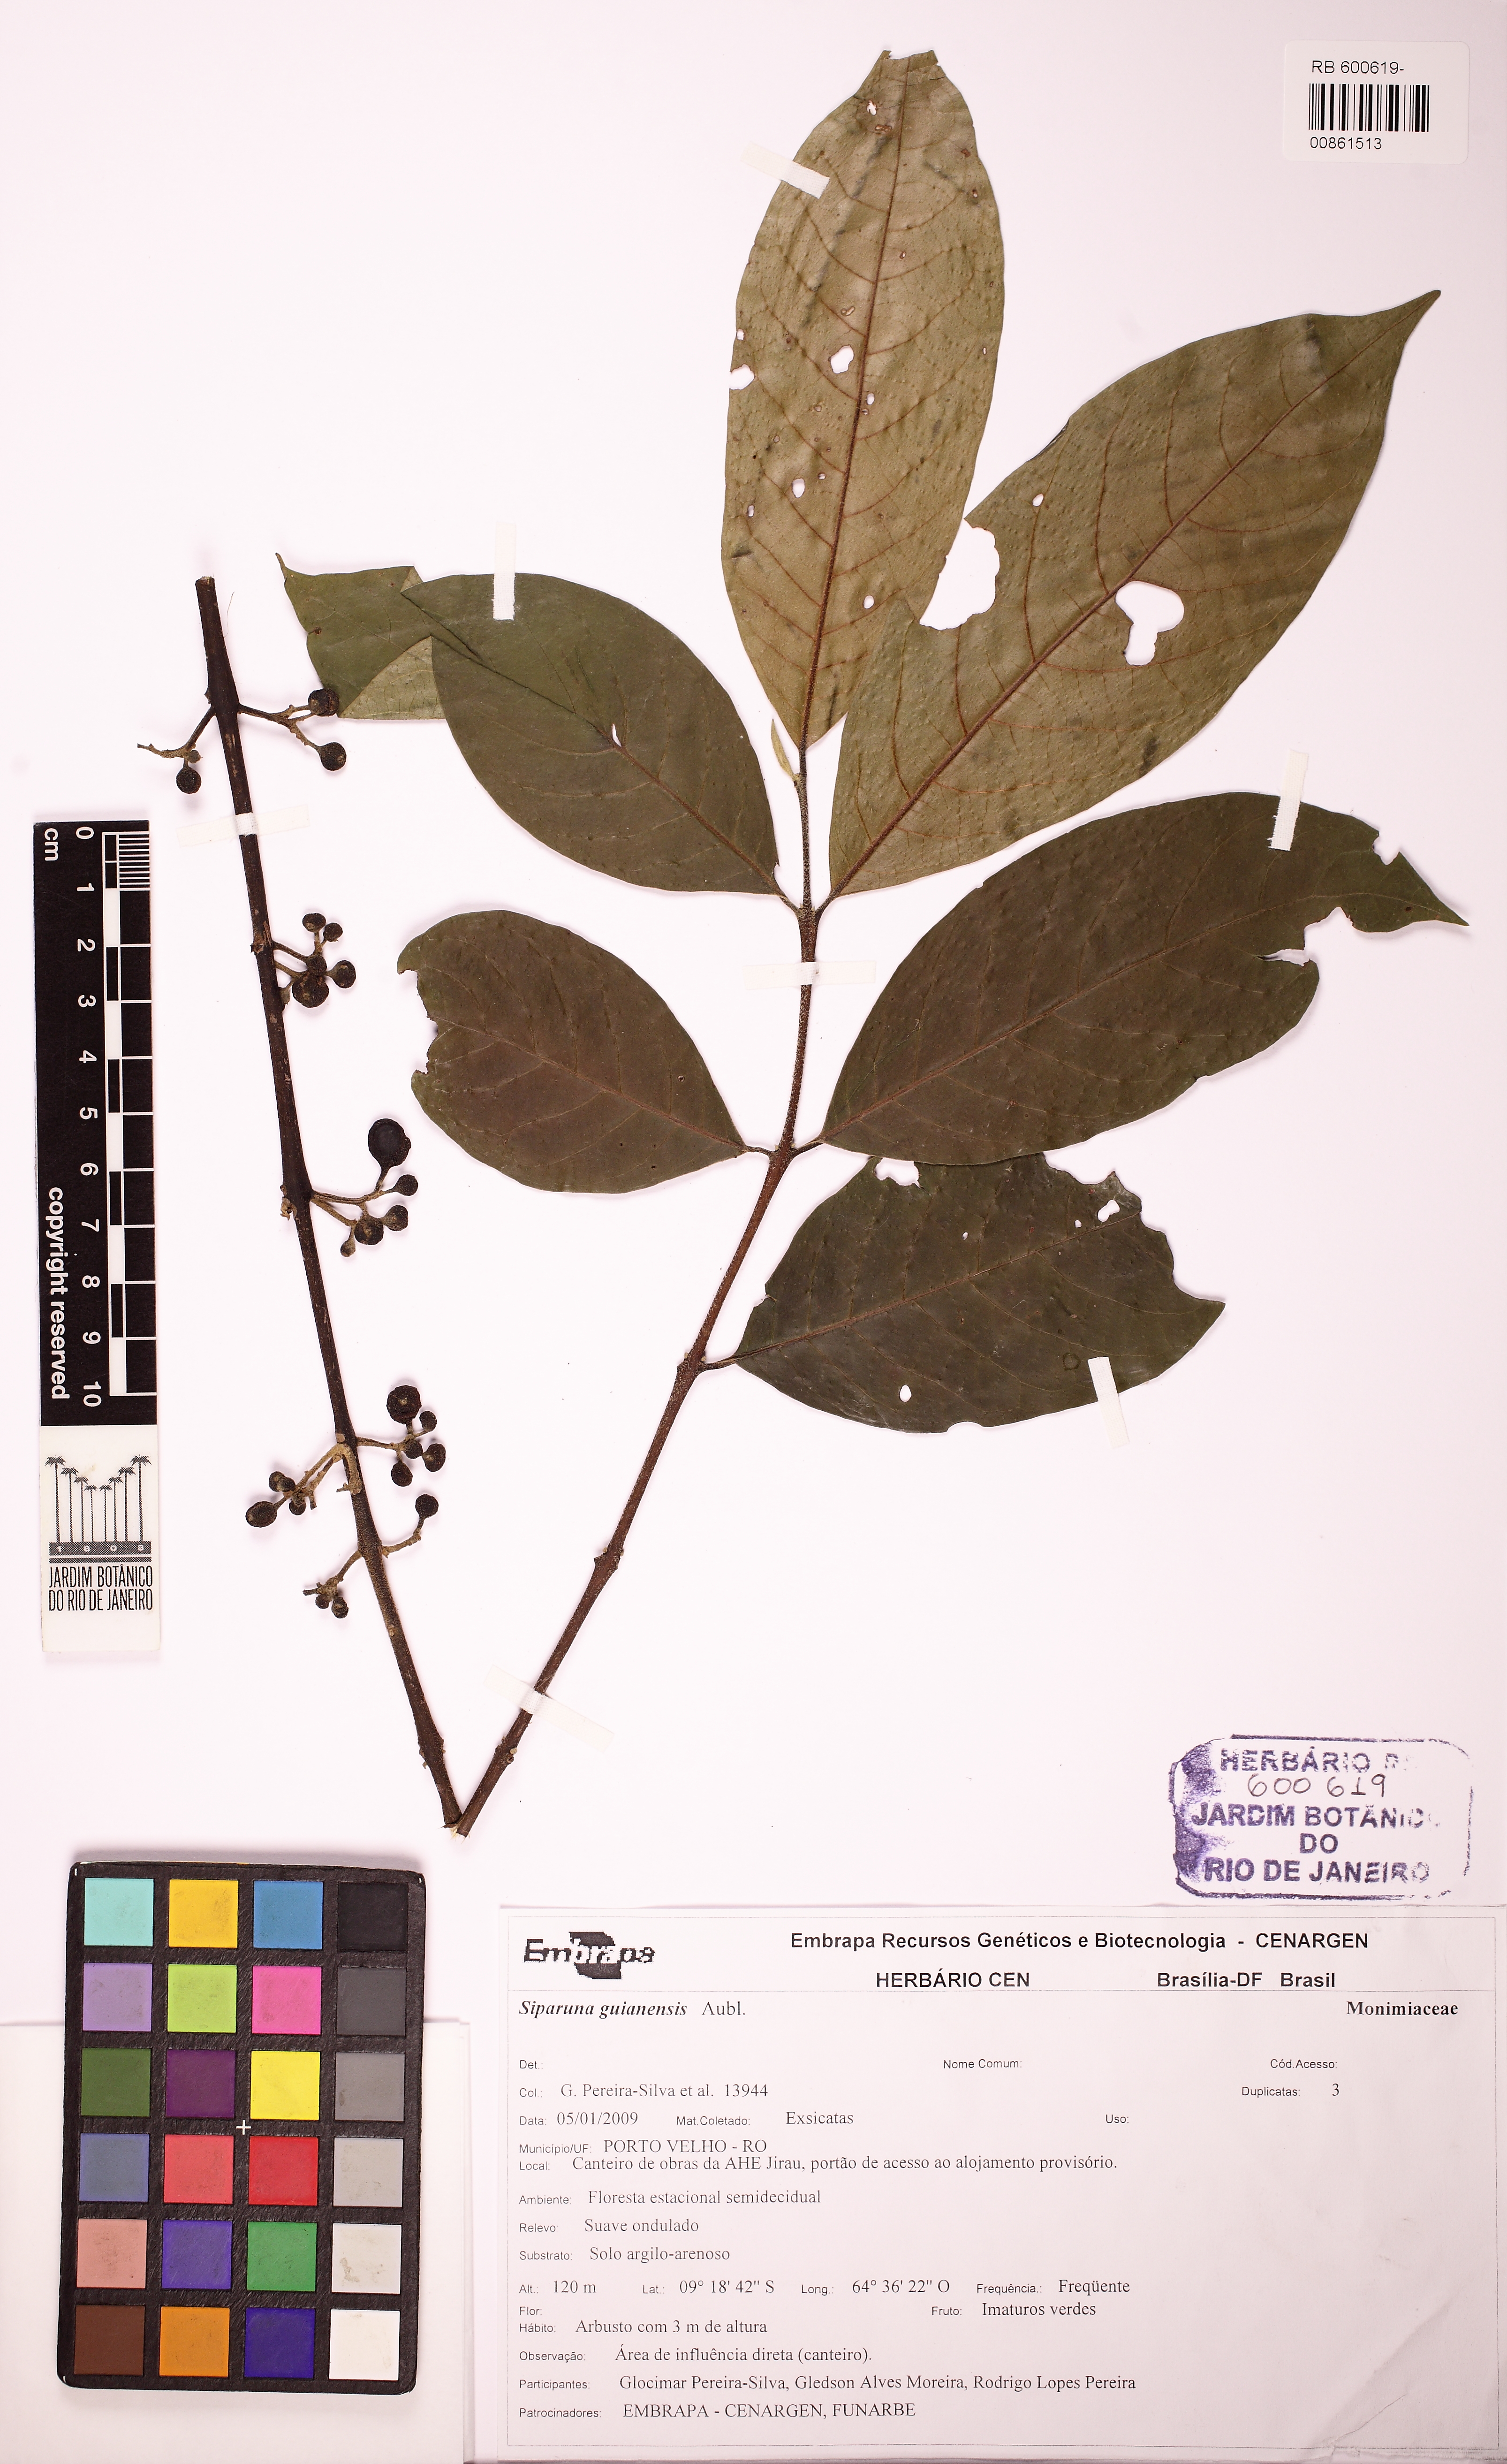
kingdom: Plantae
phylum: Tracheophyta
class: Magnoliopsida
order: Laurales
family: Siparunaceae
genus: Siparuna
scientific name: Siparuna guianensis
